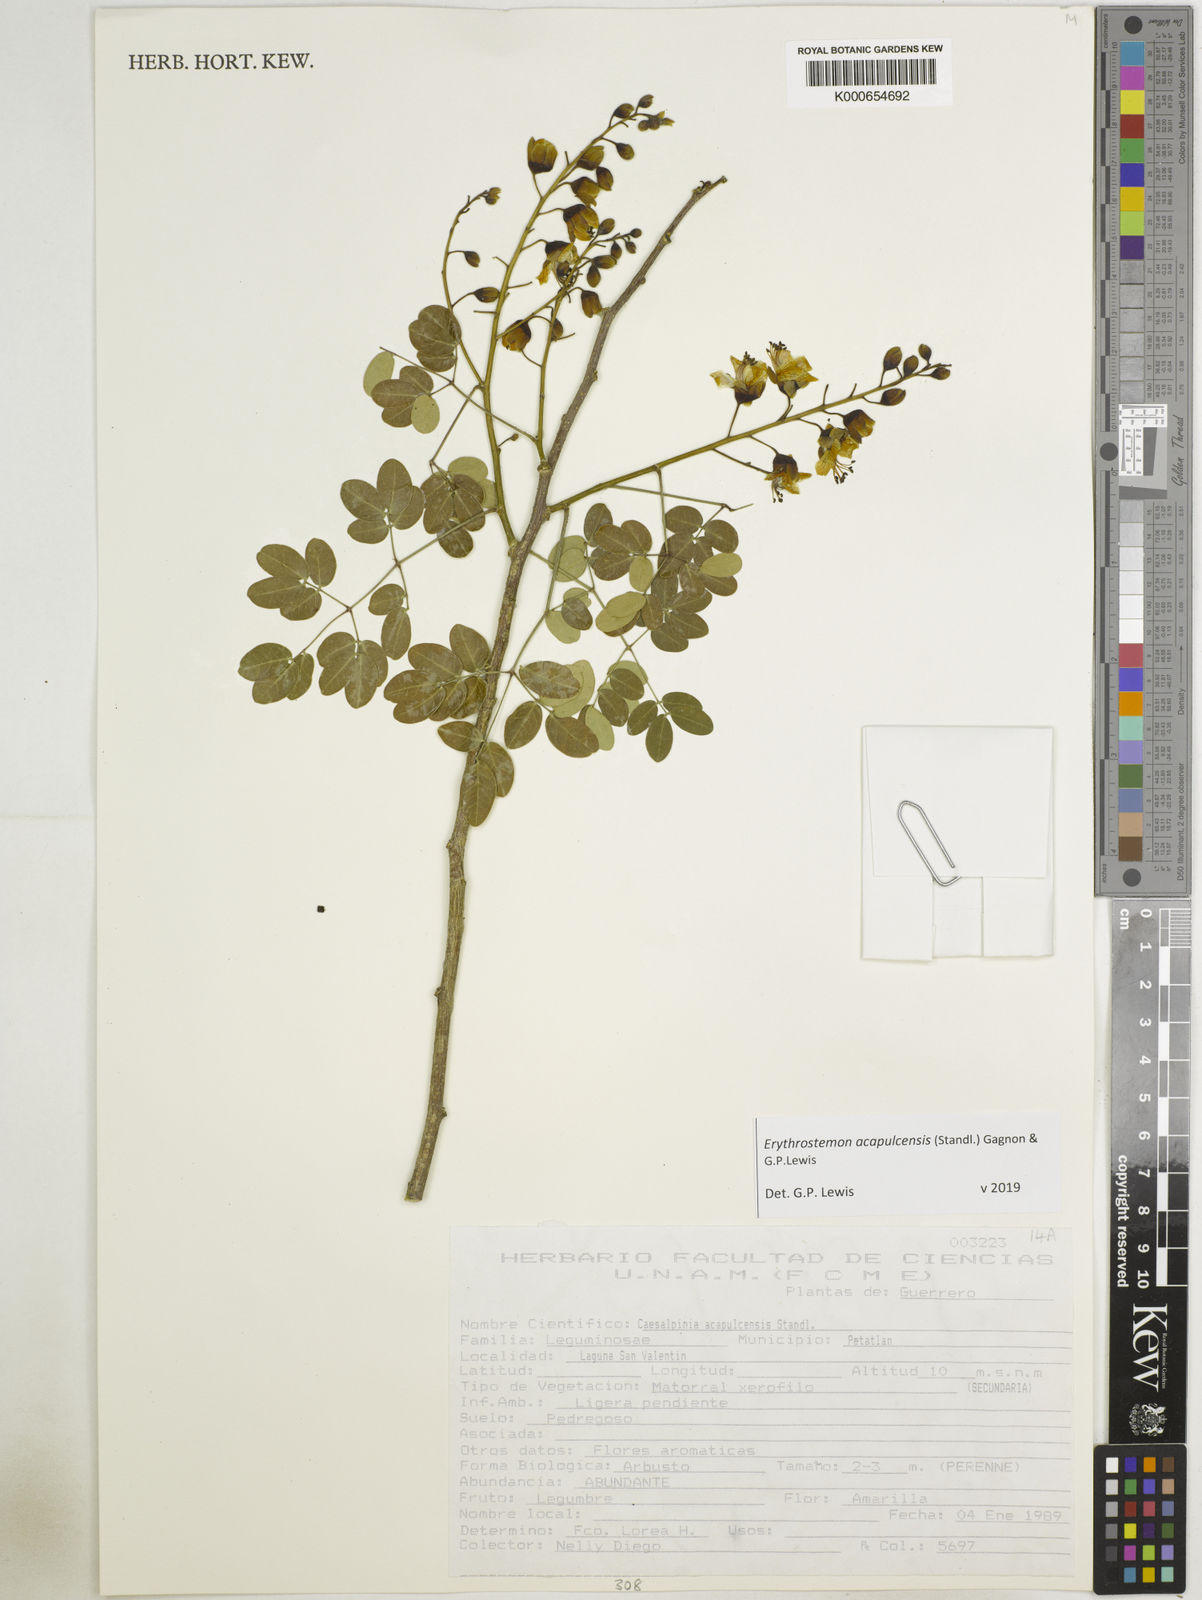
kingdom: Plantae
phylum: Tracheophyta
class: Magnoliopsida
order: Fabales
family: Fabaceae
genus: Erythrostemon
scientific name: Erythrostemon acapulcensis
